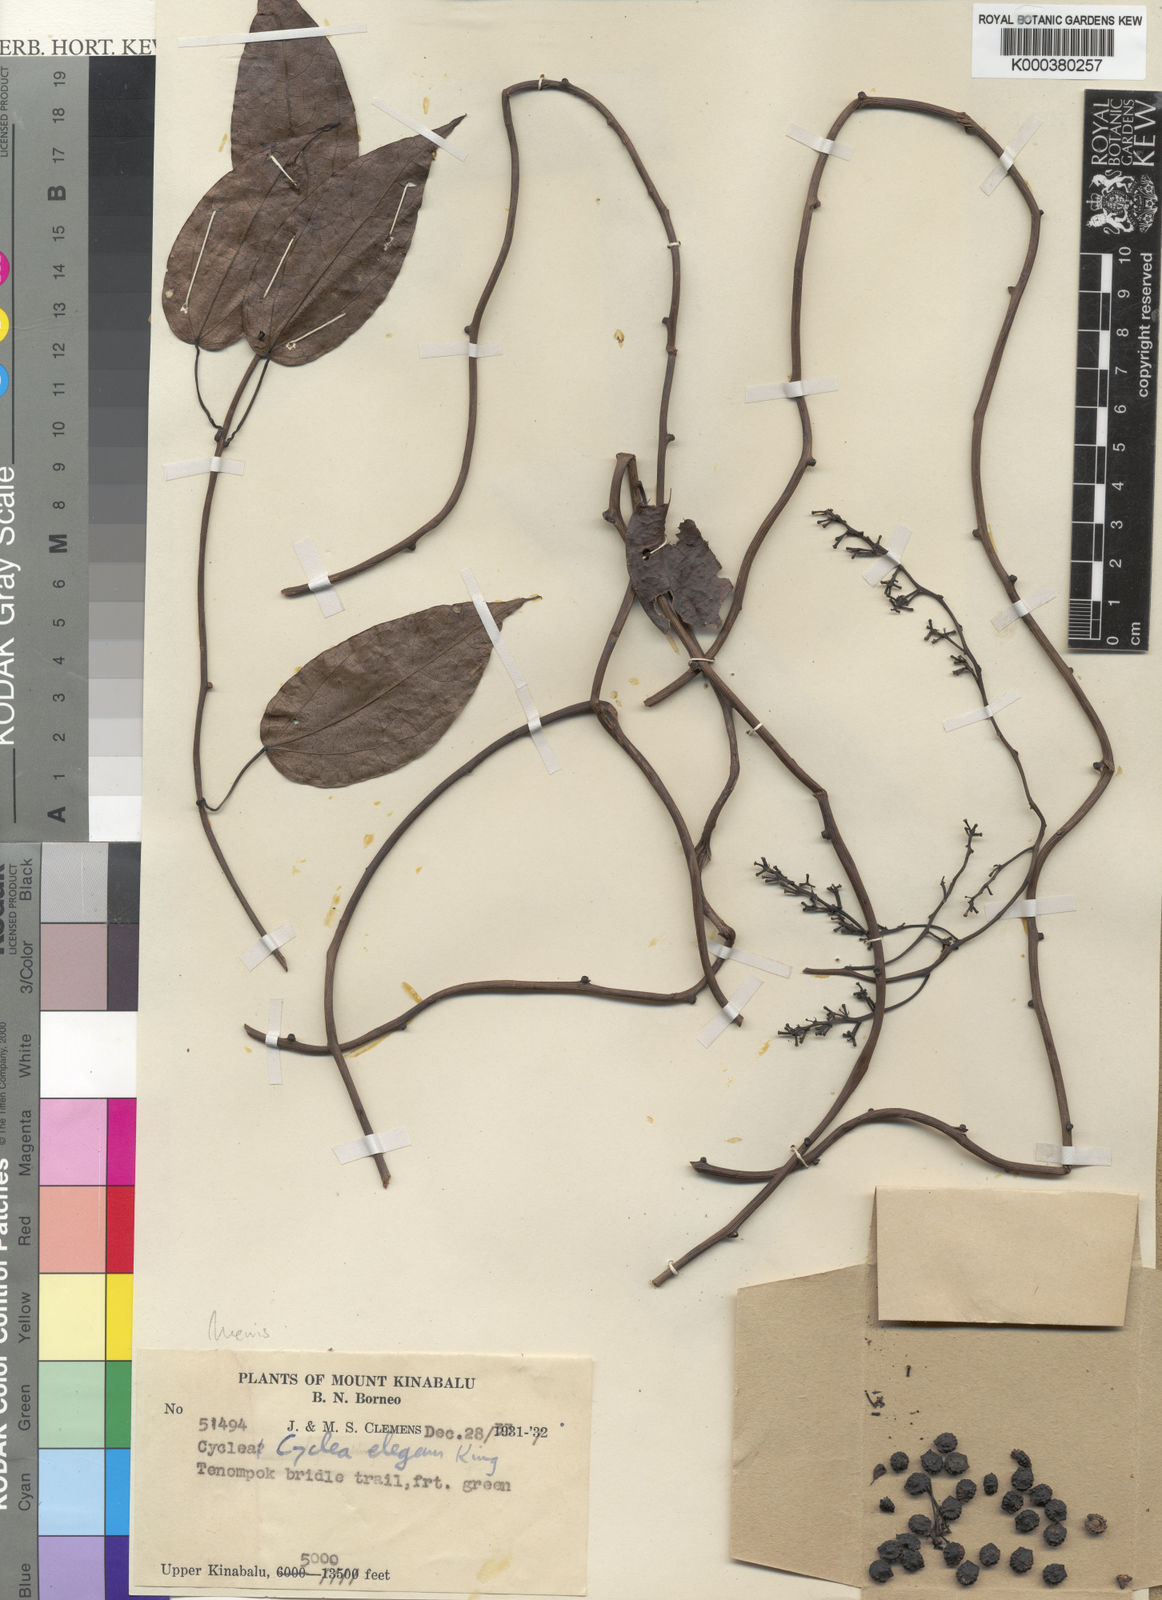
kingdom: Plantae
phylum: Tracheophyta
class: Magnoliopsida
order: Ranunculales
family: Menispermaceae
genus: Cyclea
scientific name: Cyclea elegans
